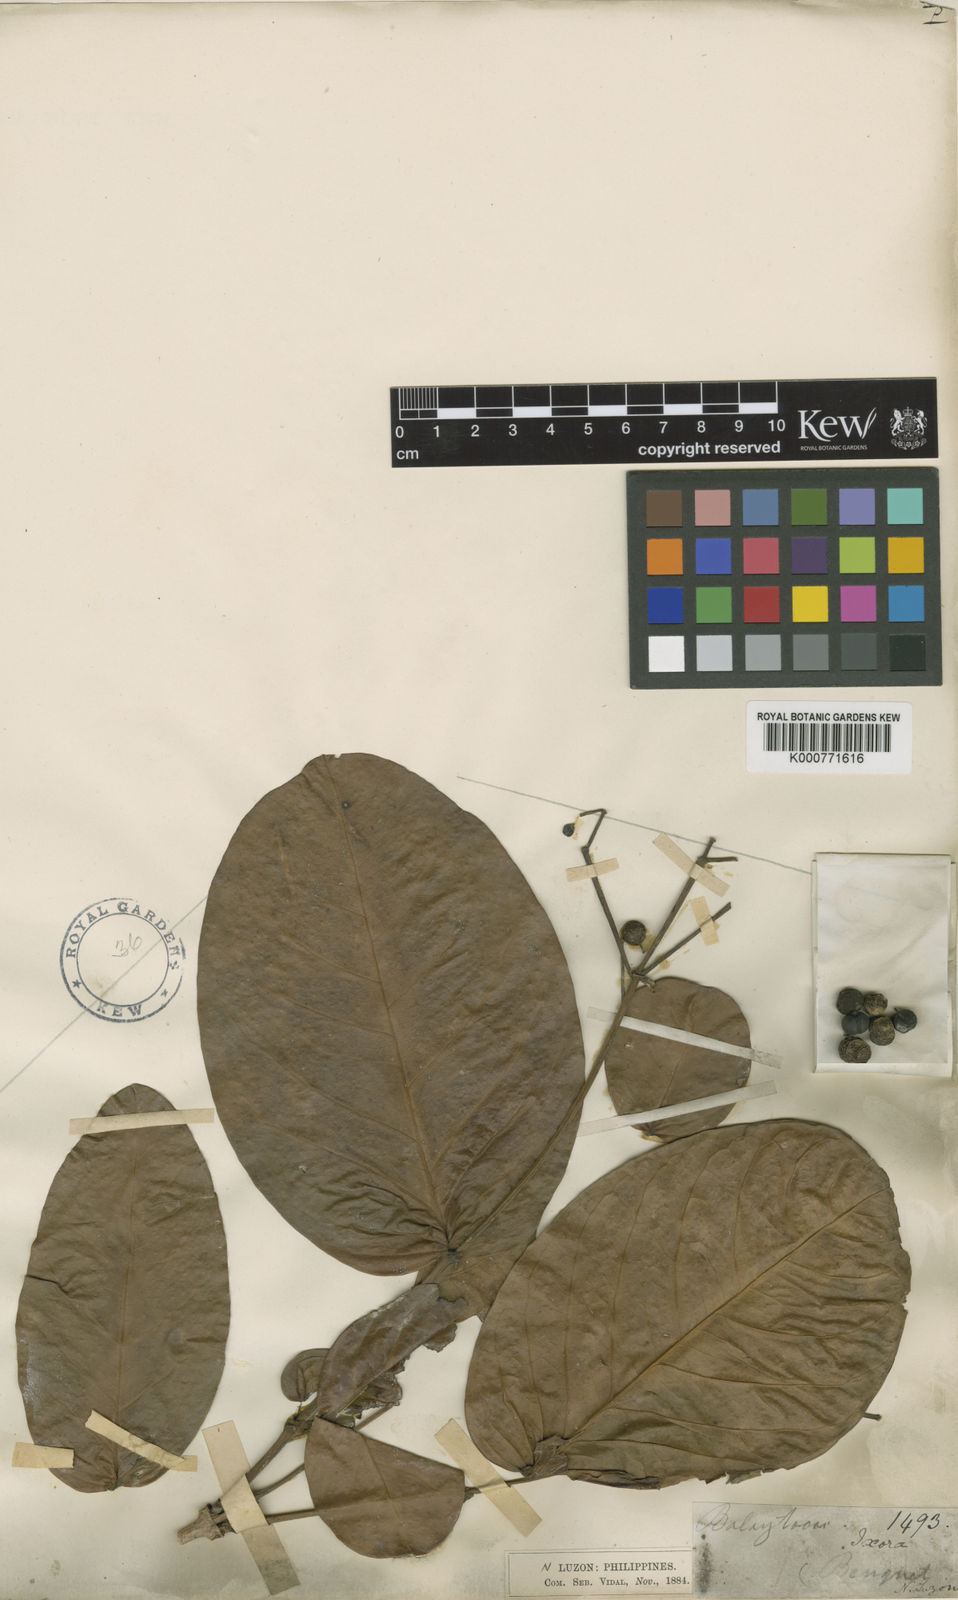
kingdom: Plantae
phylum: Tracheophyta
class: Magnoliopsida
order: Gentianales
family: Rubiaceae
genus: Ixora
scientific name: Ixora cumingiana
